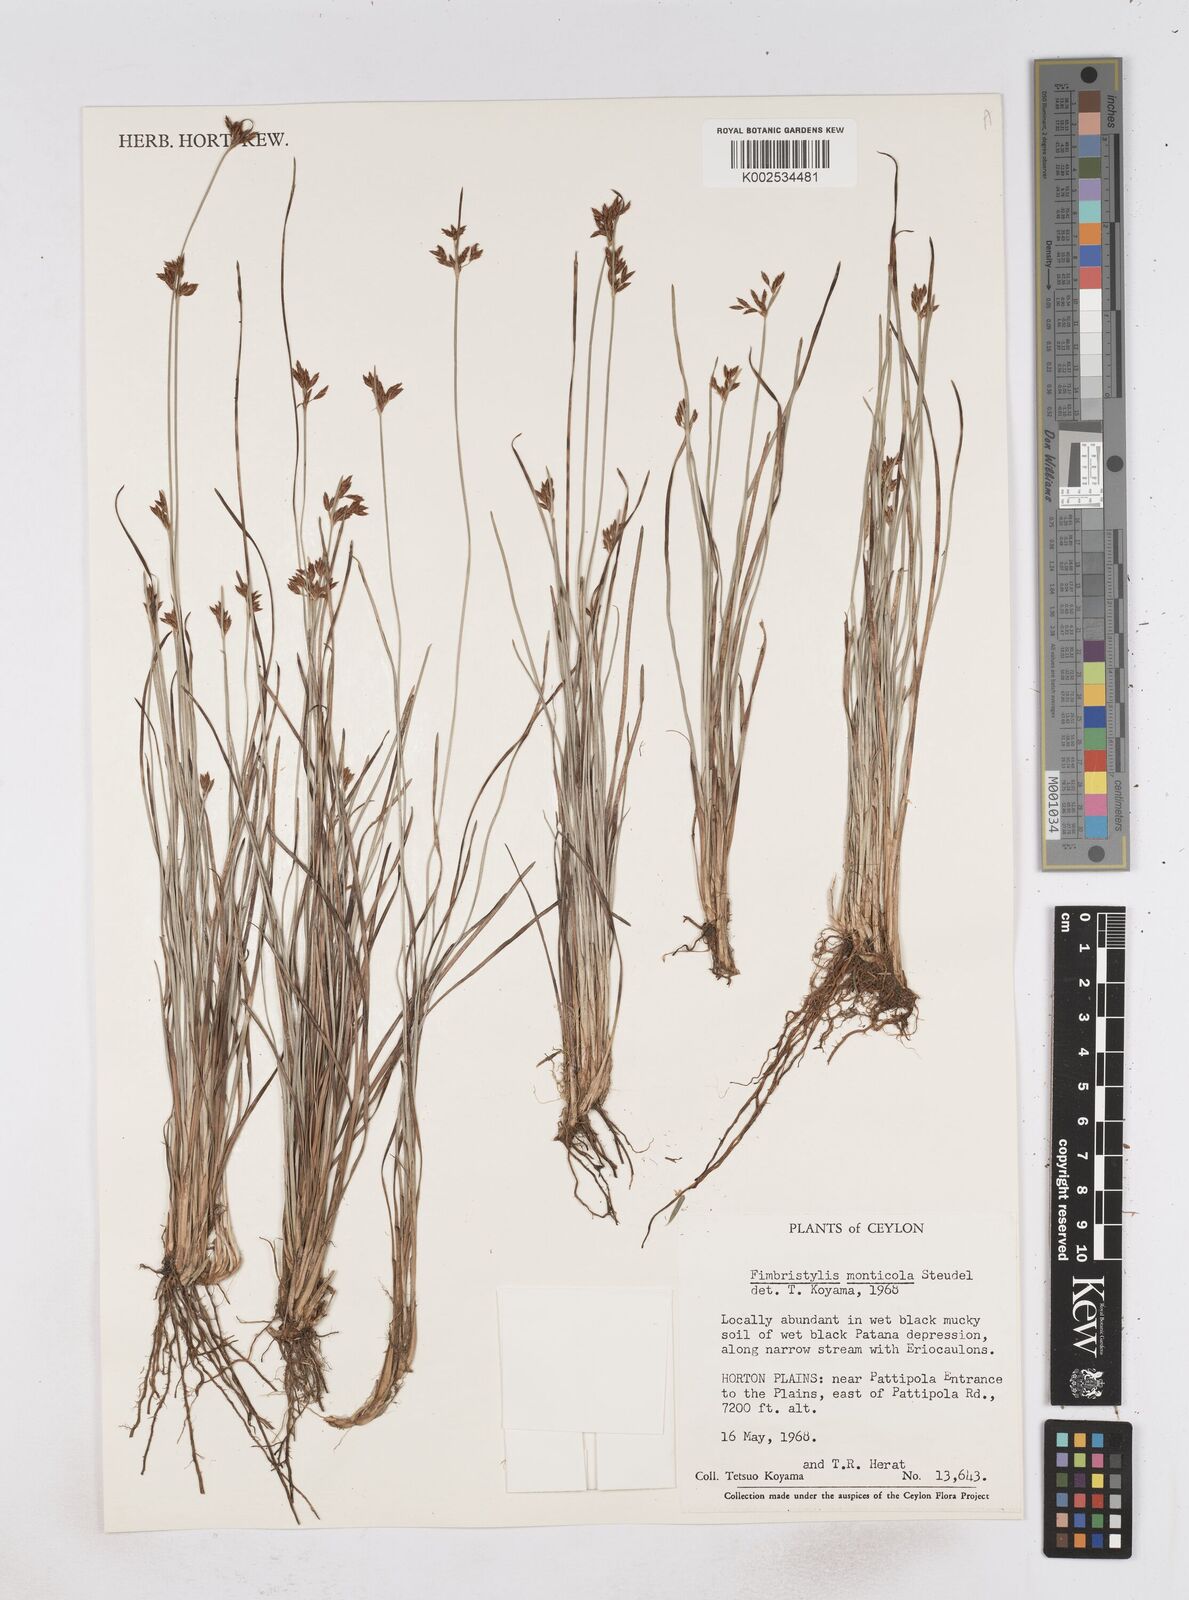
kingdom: Plantae
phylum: Tracheophyta
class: Liliopsida
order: Poales
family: Cyperaceae
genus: Fimbristylis
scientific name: Fimbristylis monticola
